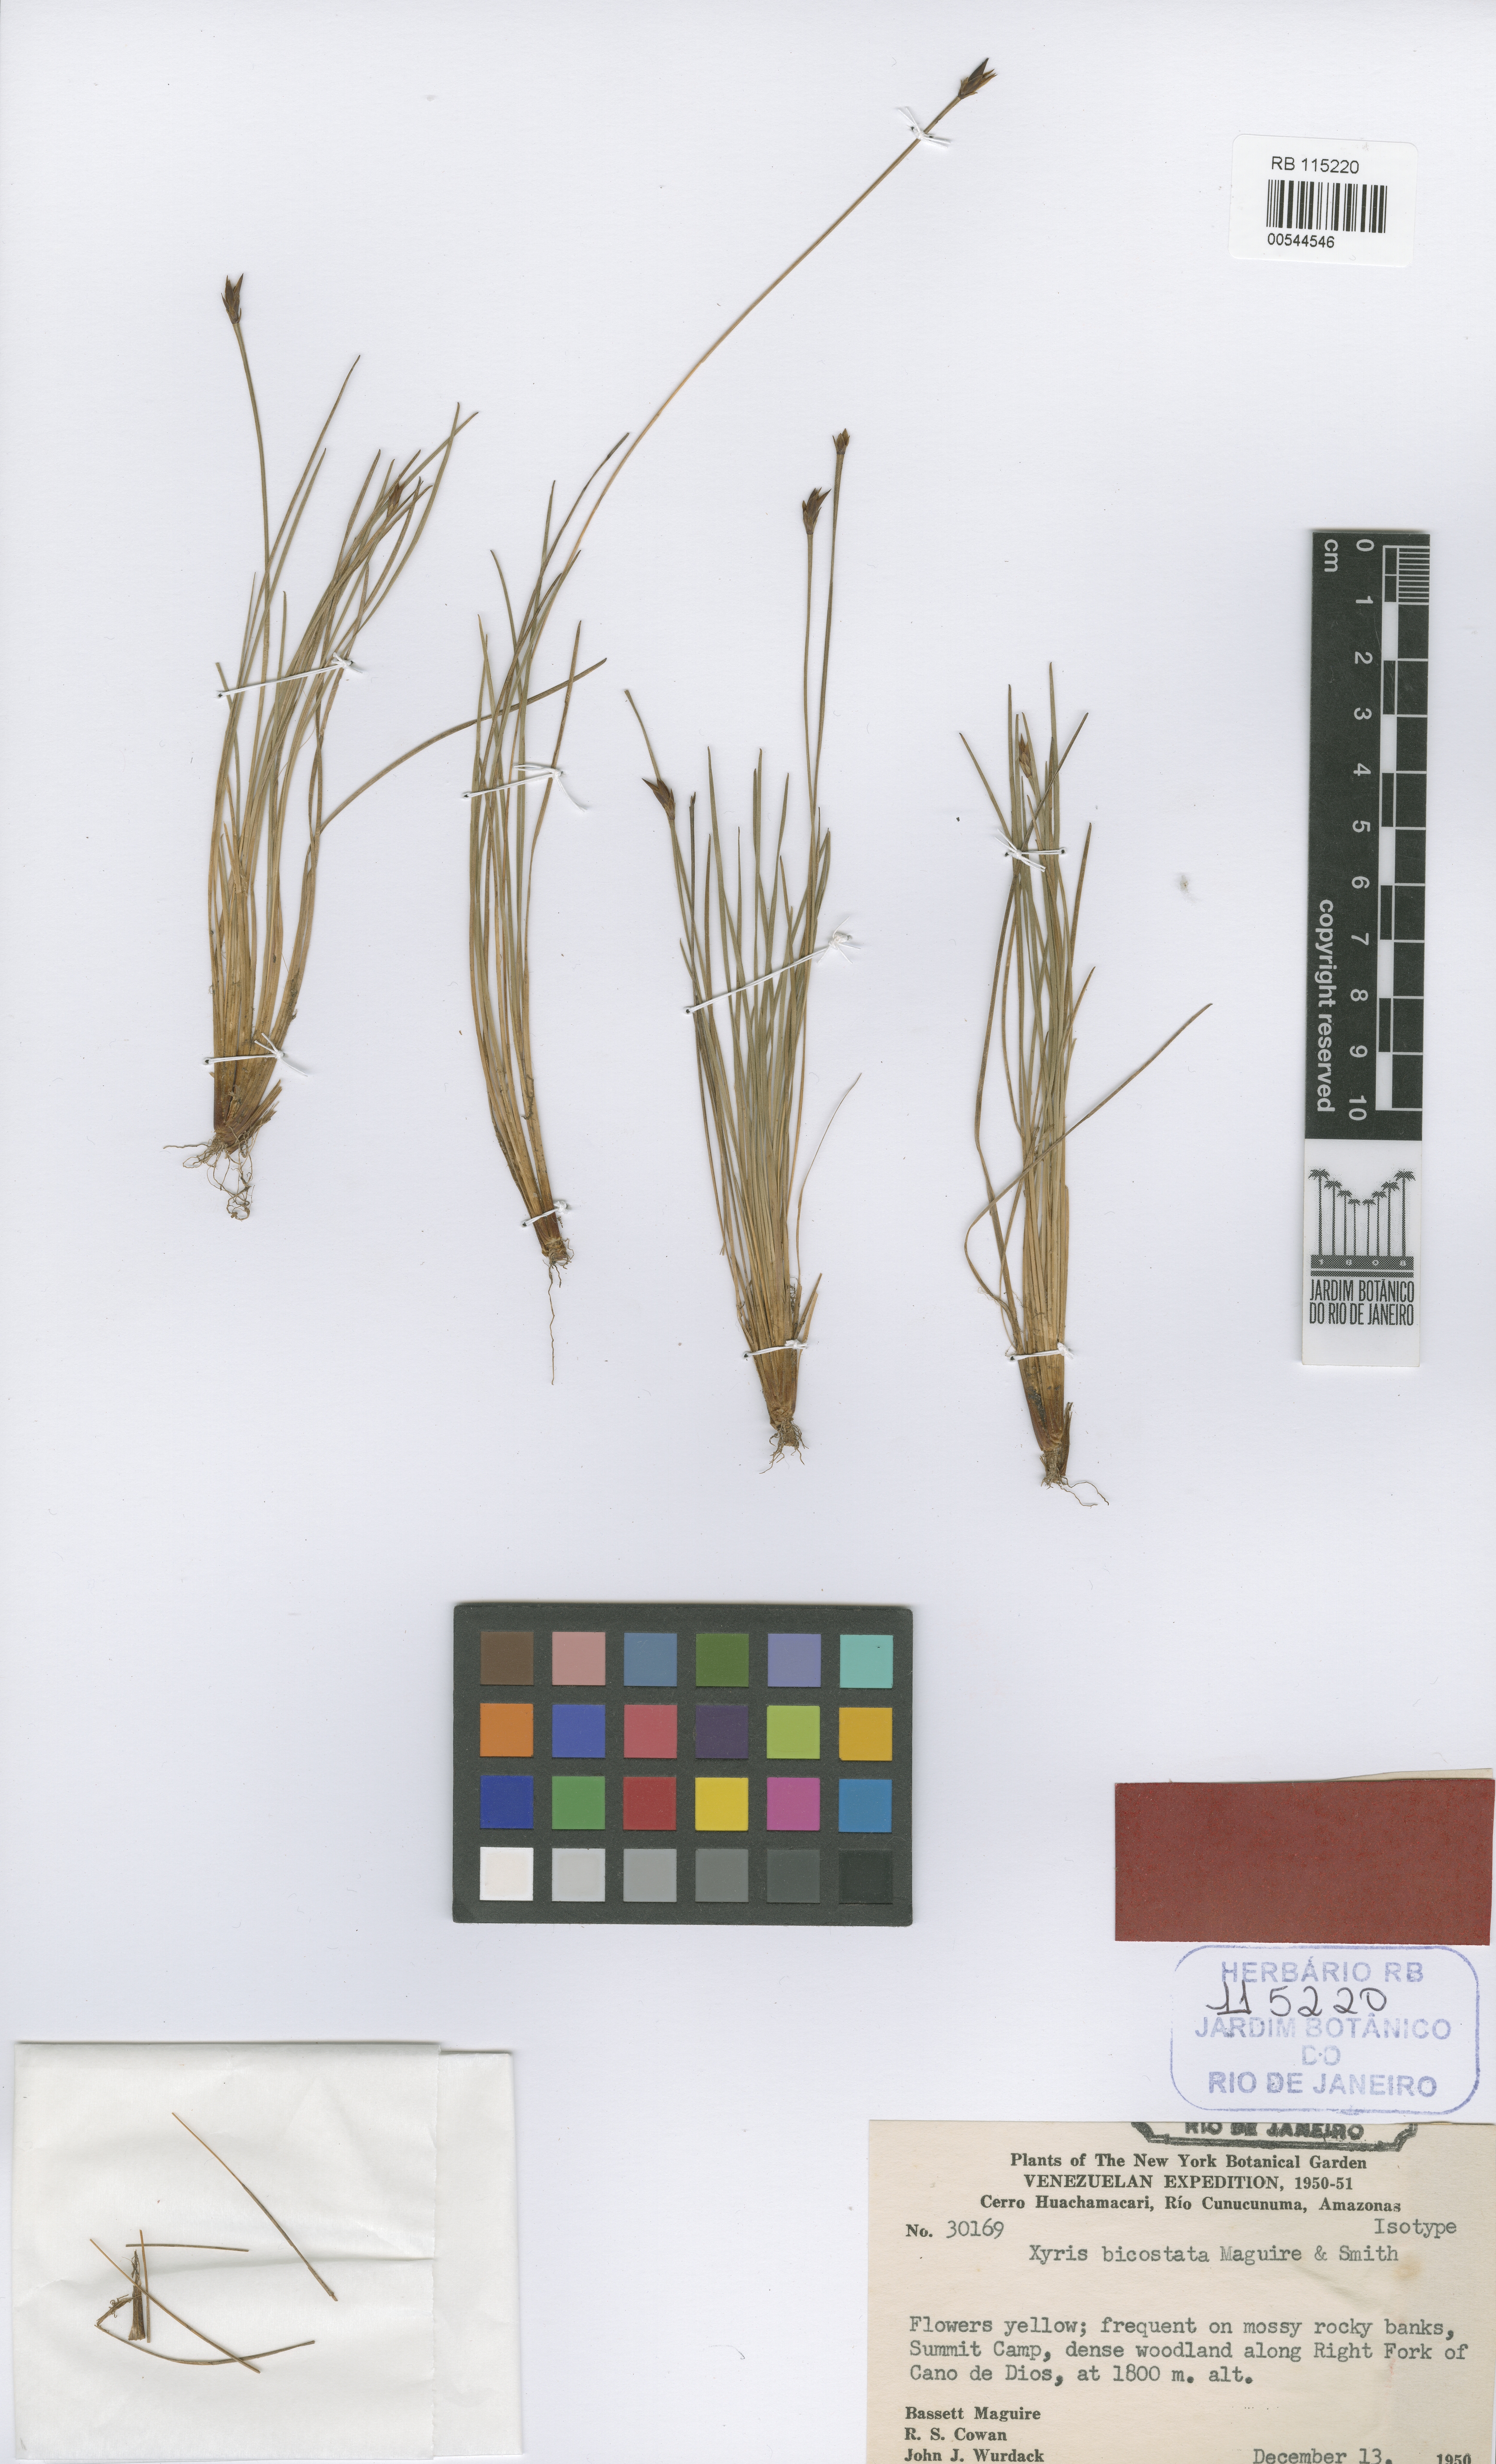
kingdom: Plantae
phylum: Tracheophyta
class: Liliopsida
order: Poales
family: Xyridaceae
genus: Xyris
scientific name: Xyris bicostata
